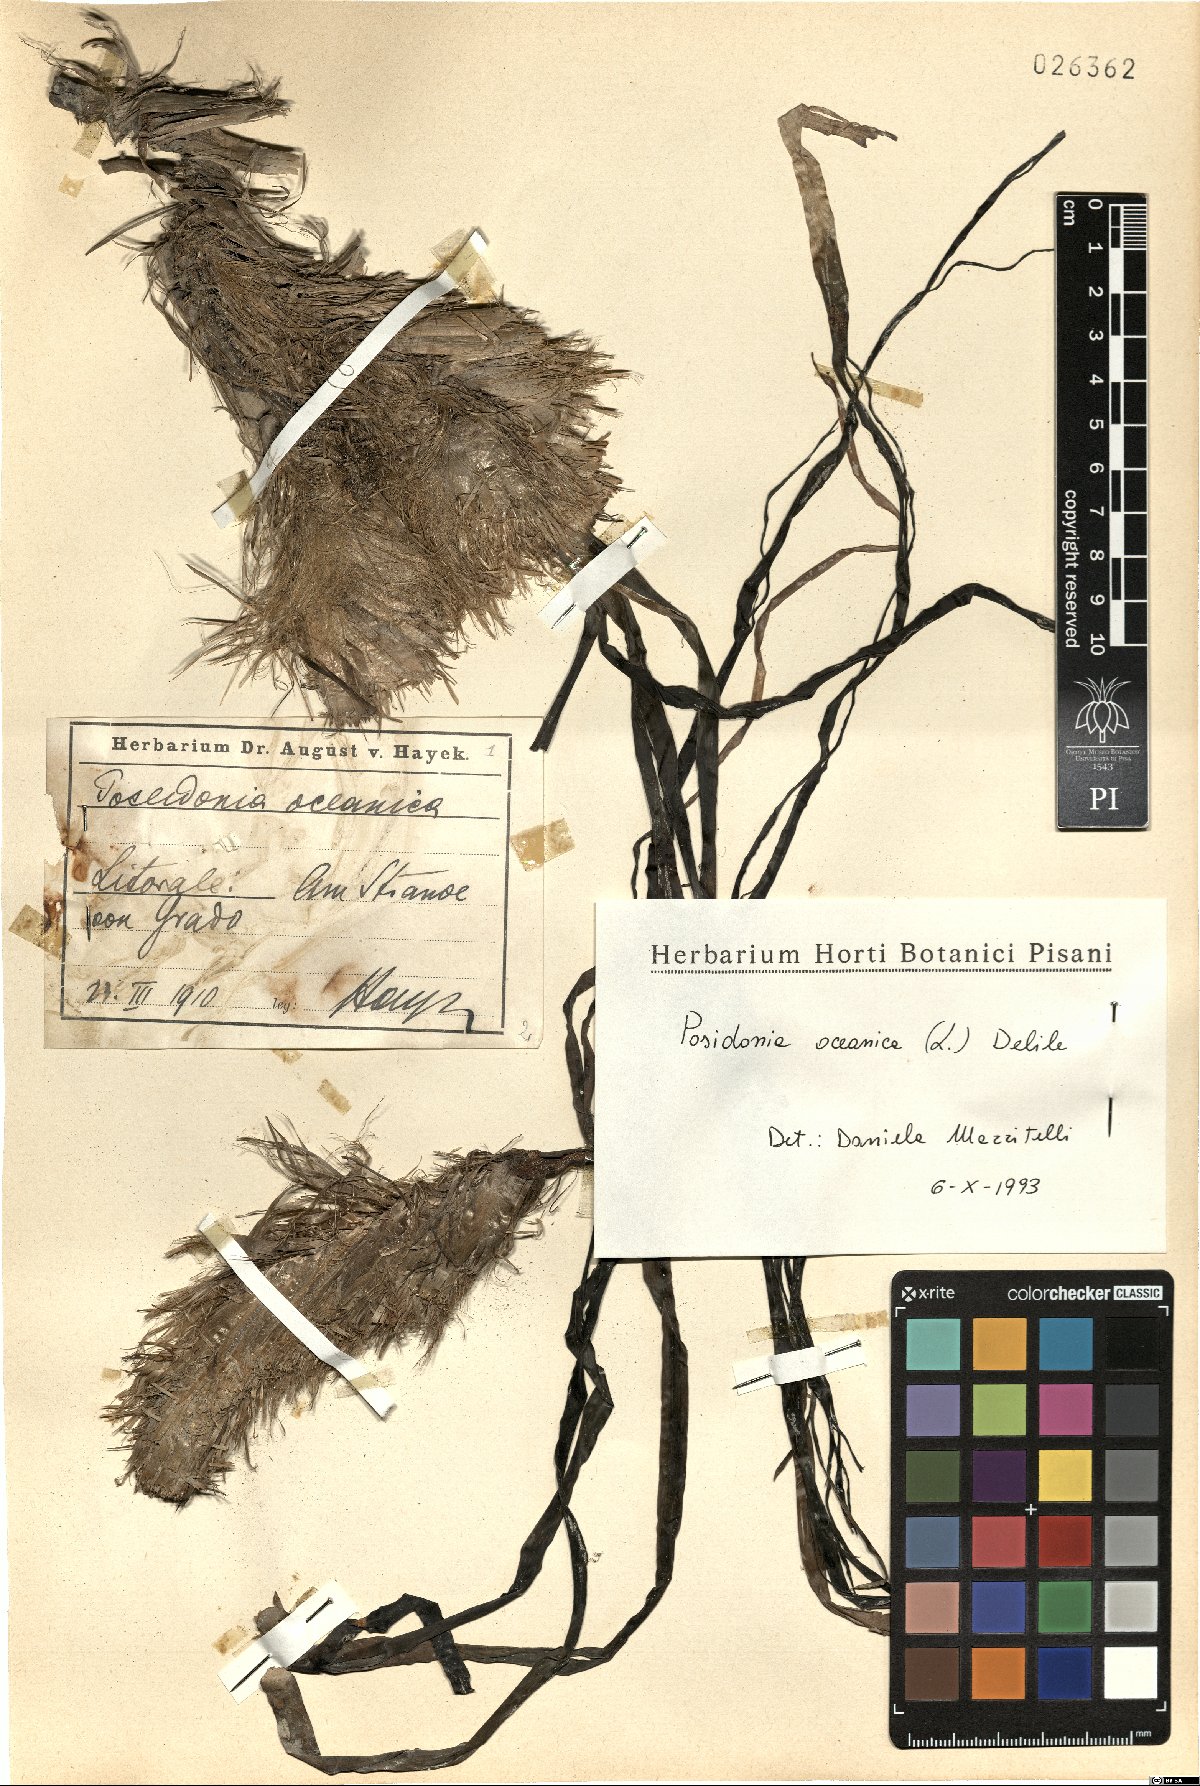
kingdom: Plantae
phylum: Tracheophyta
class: Liliopsida
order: Alismatales
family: Posidoniaceae
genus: Posidonia
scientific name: Posidonia oceanica
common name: Mediterranean tapeweed
